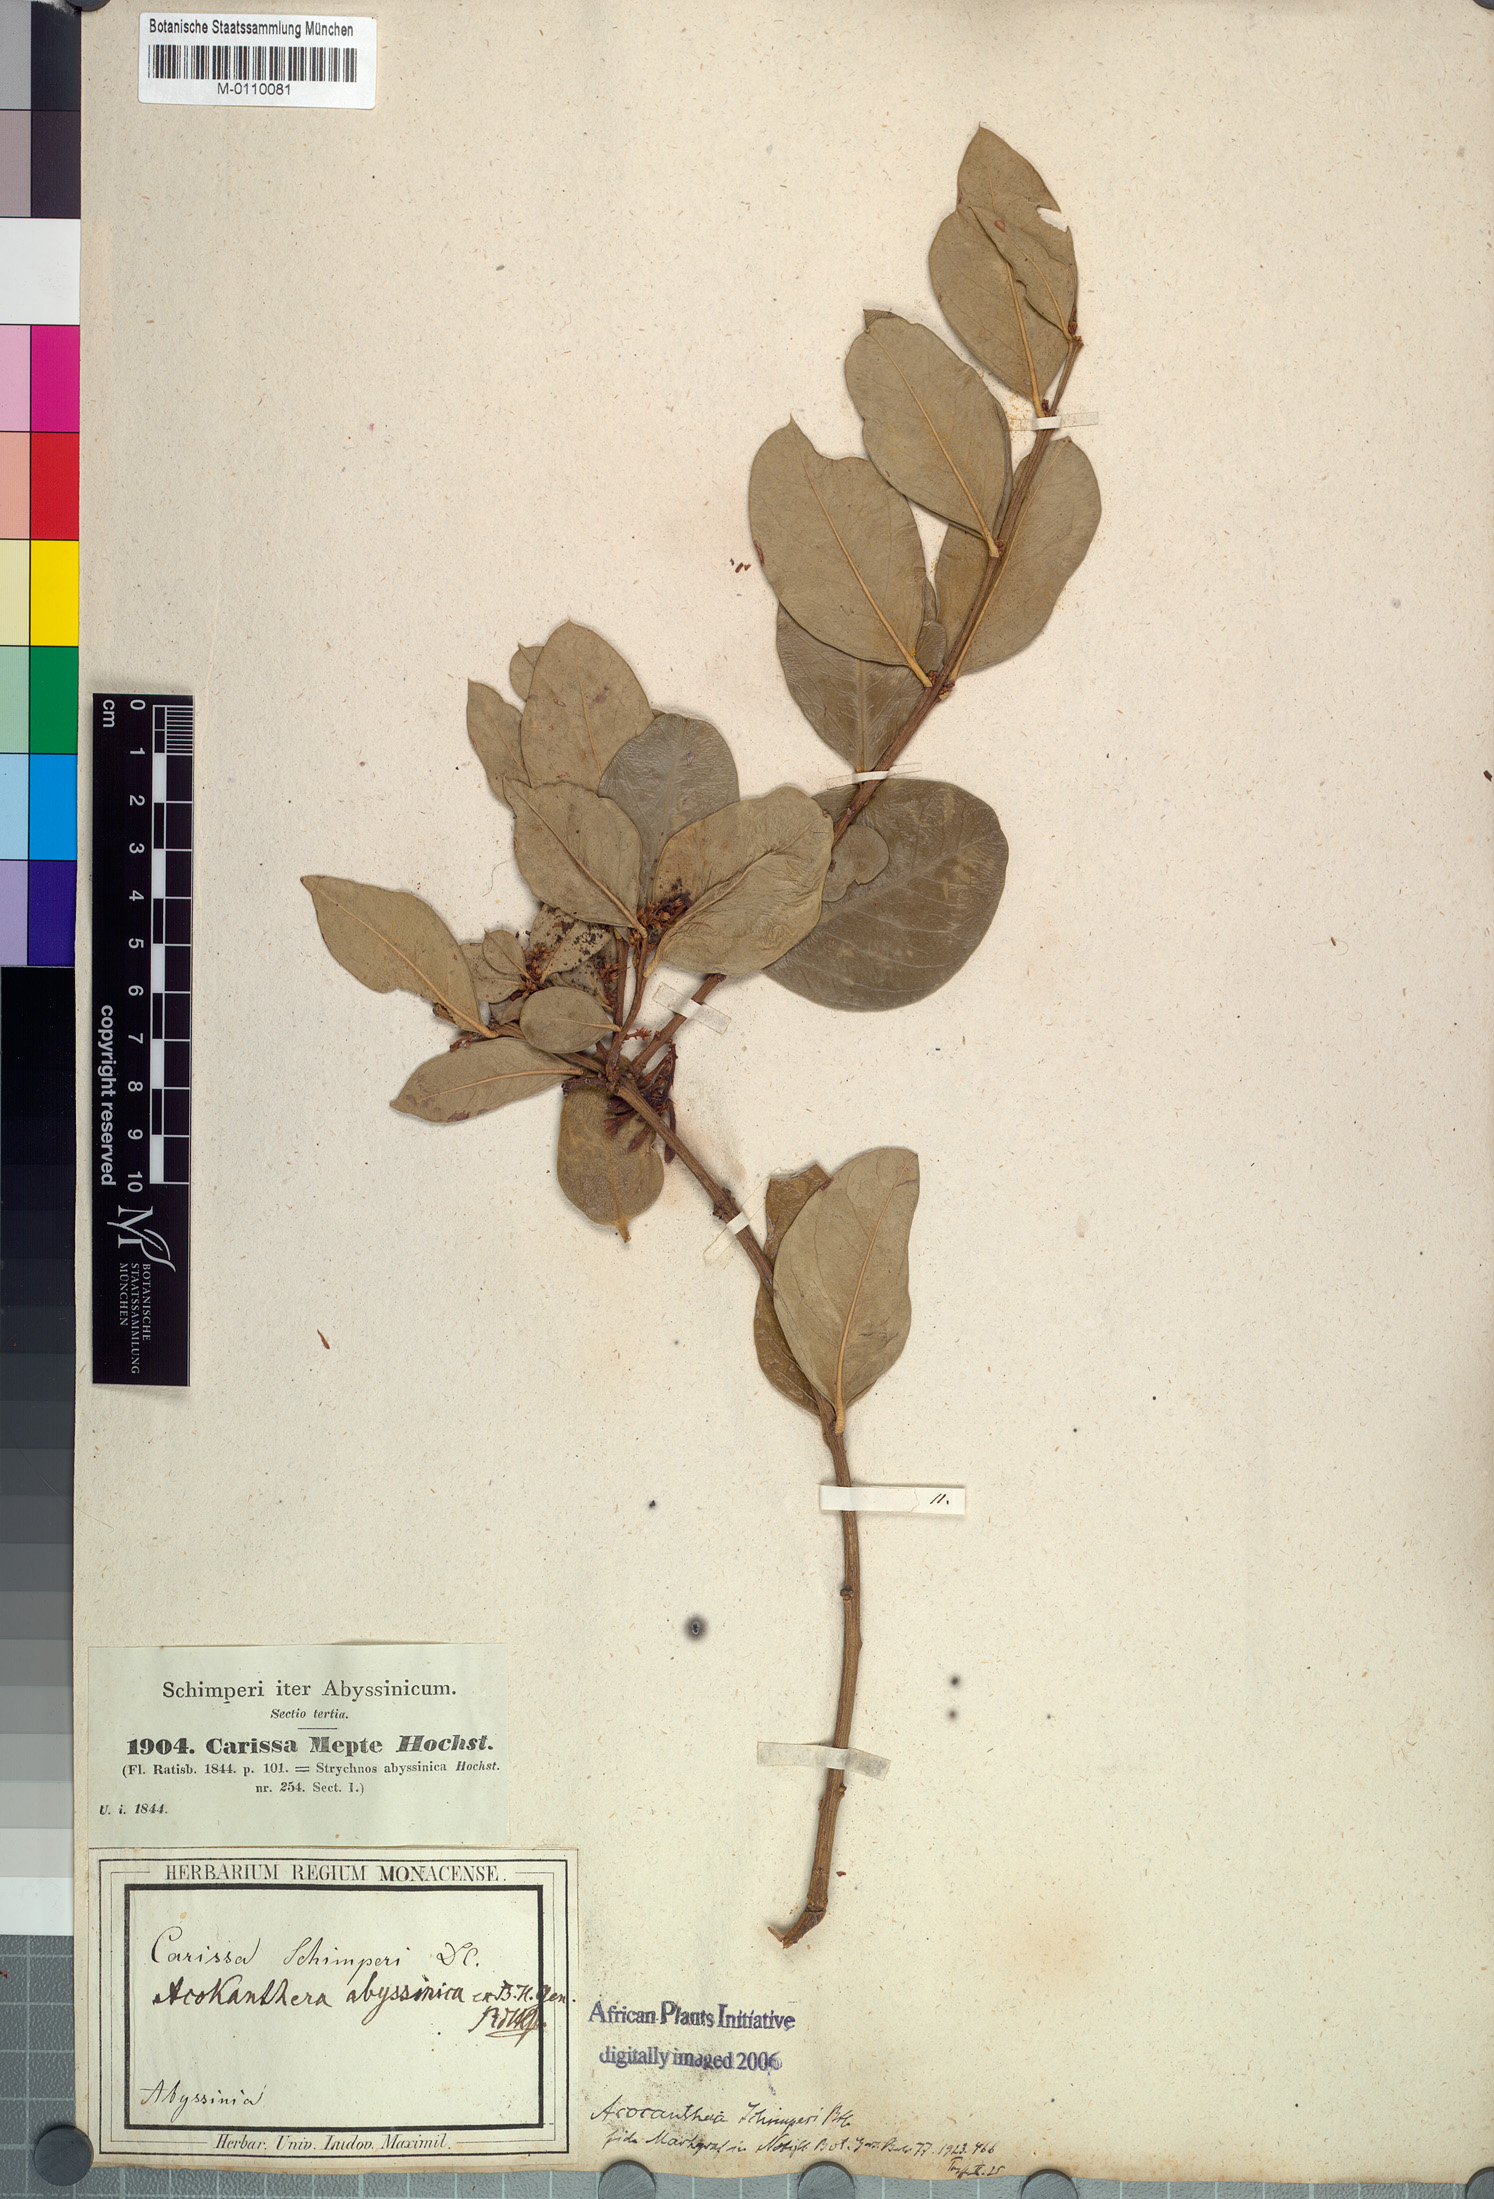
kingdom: Plantae
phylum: Tracheophyta
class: Magnoliopsida
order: Gentianales
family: Apocynaceae
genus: Acokanthera
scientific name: Acokanthera schimperi
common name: Arrow-poison-tree
